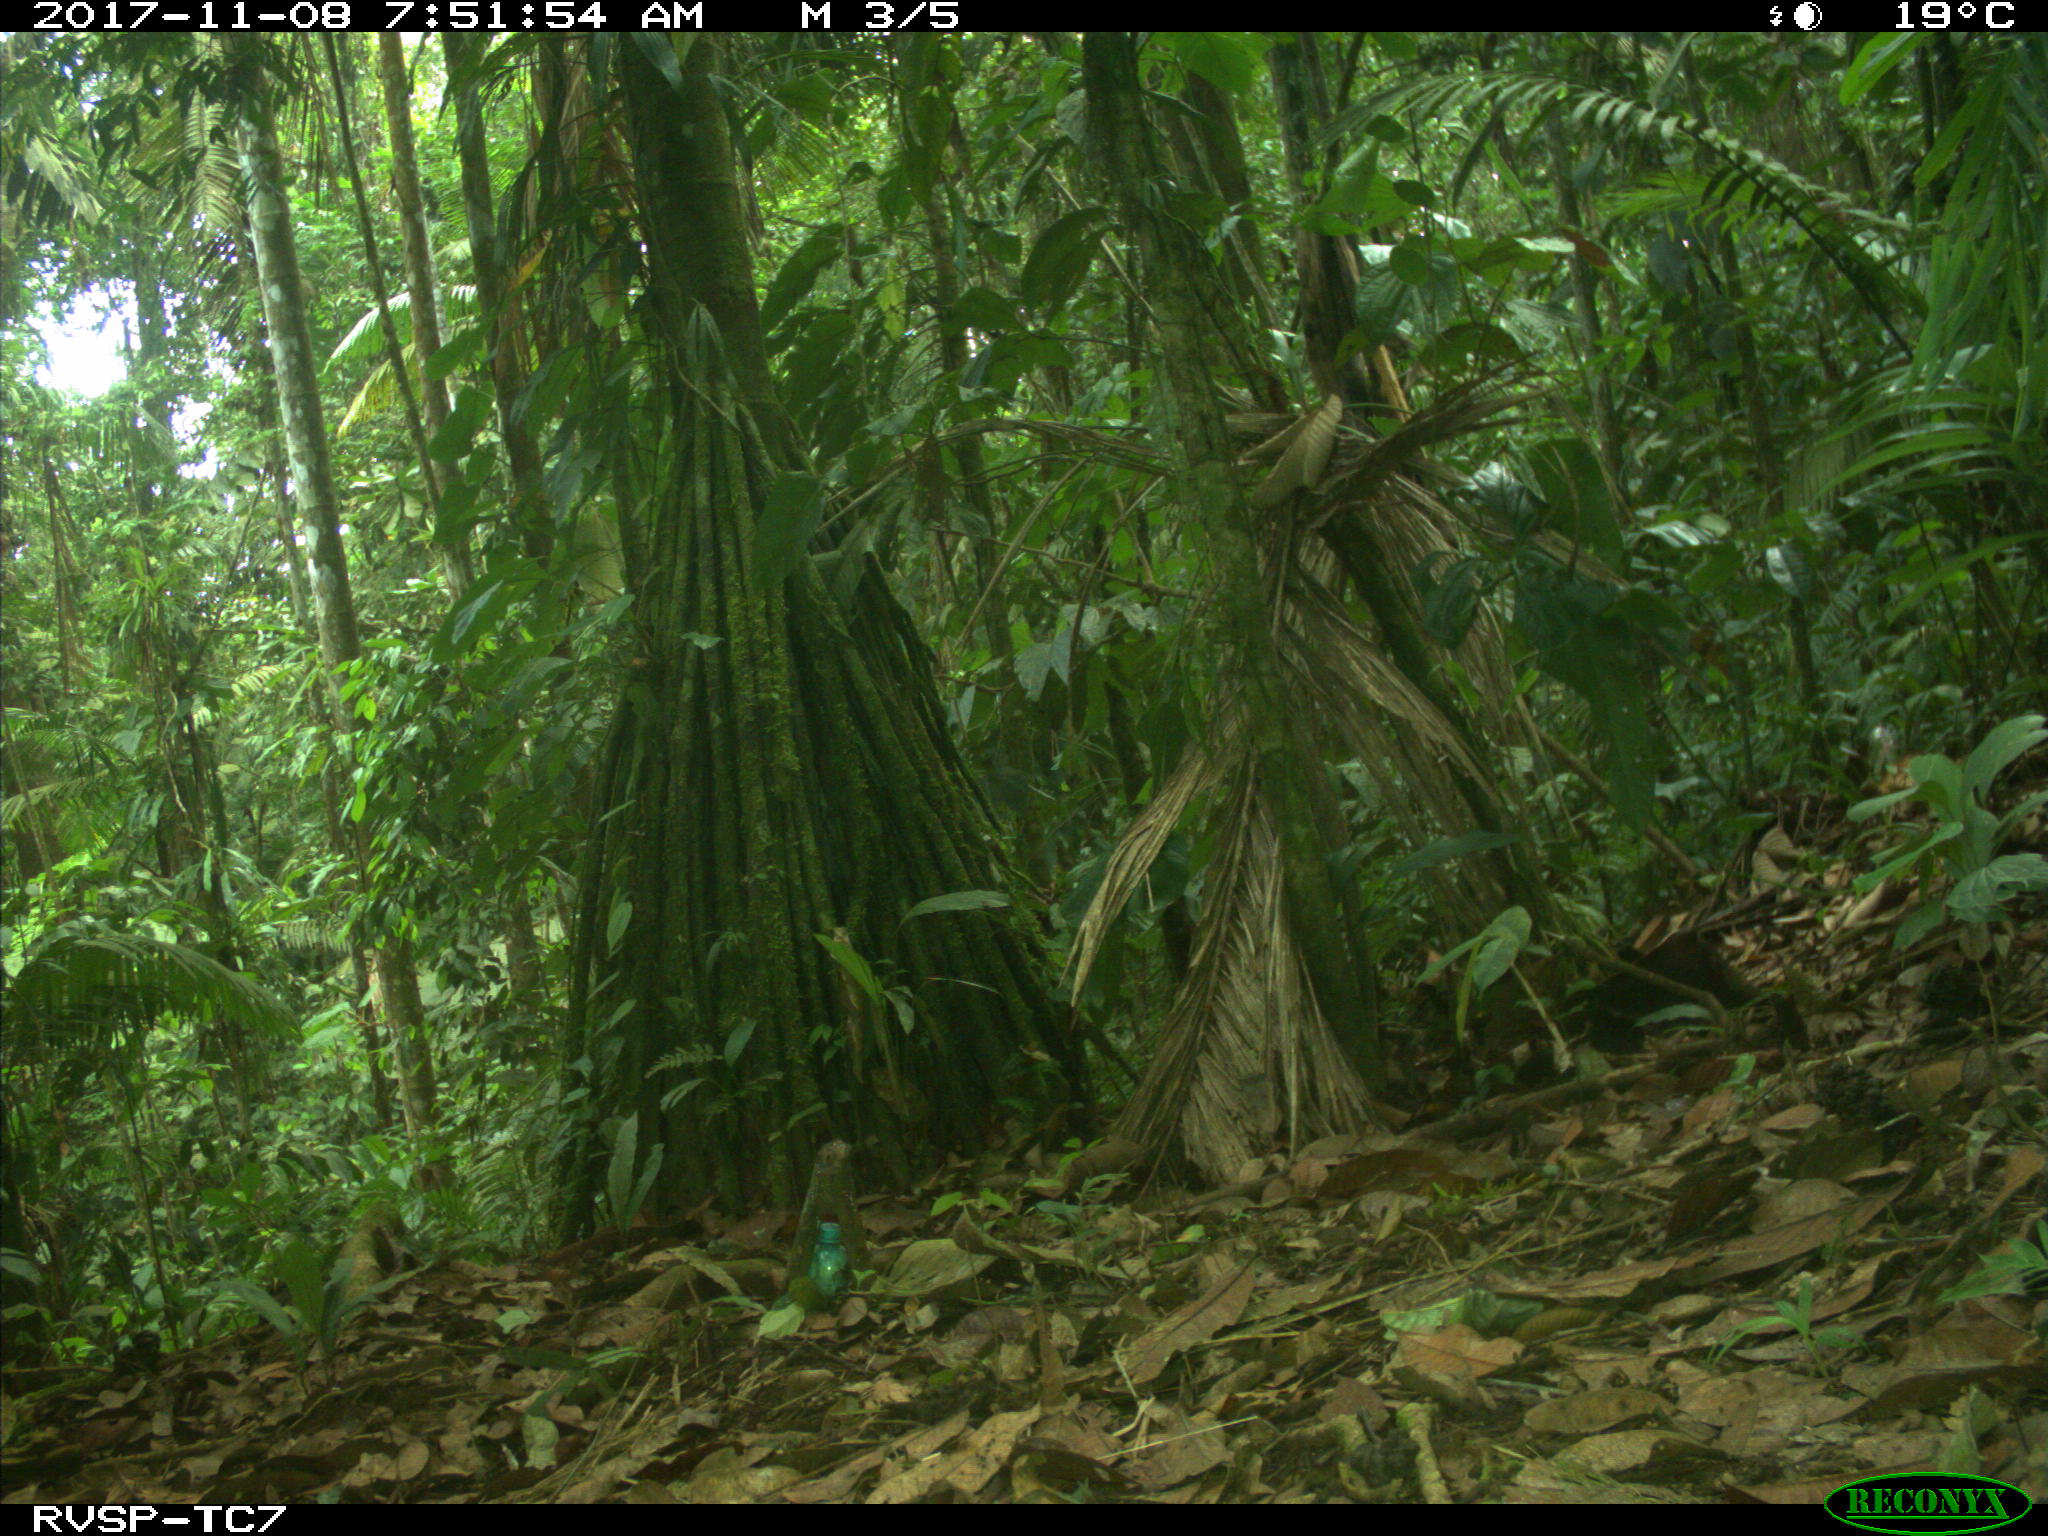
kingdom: Animalia
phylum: Chordata
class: Mammalia
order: Rodentia
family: Dasyproctidae
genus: Dasyprocta
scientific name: Dasyprocta punctata
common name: Central american agouti
